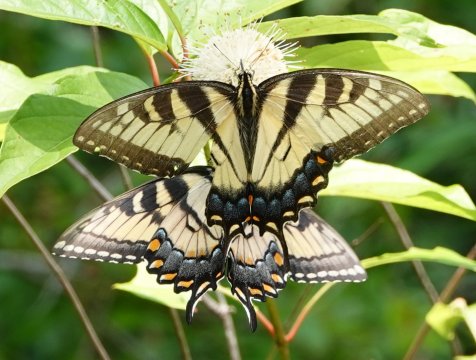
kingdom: Animalia
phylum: Arthropoda
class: Insecta
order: Lepidoptera
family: Papilionidae
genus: Pterourus
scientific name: Pterourus glaucus
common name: Eastern Tiger Swallowtail
